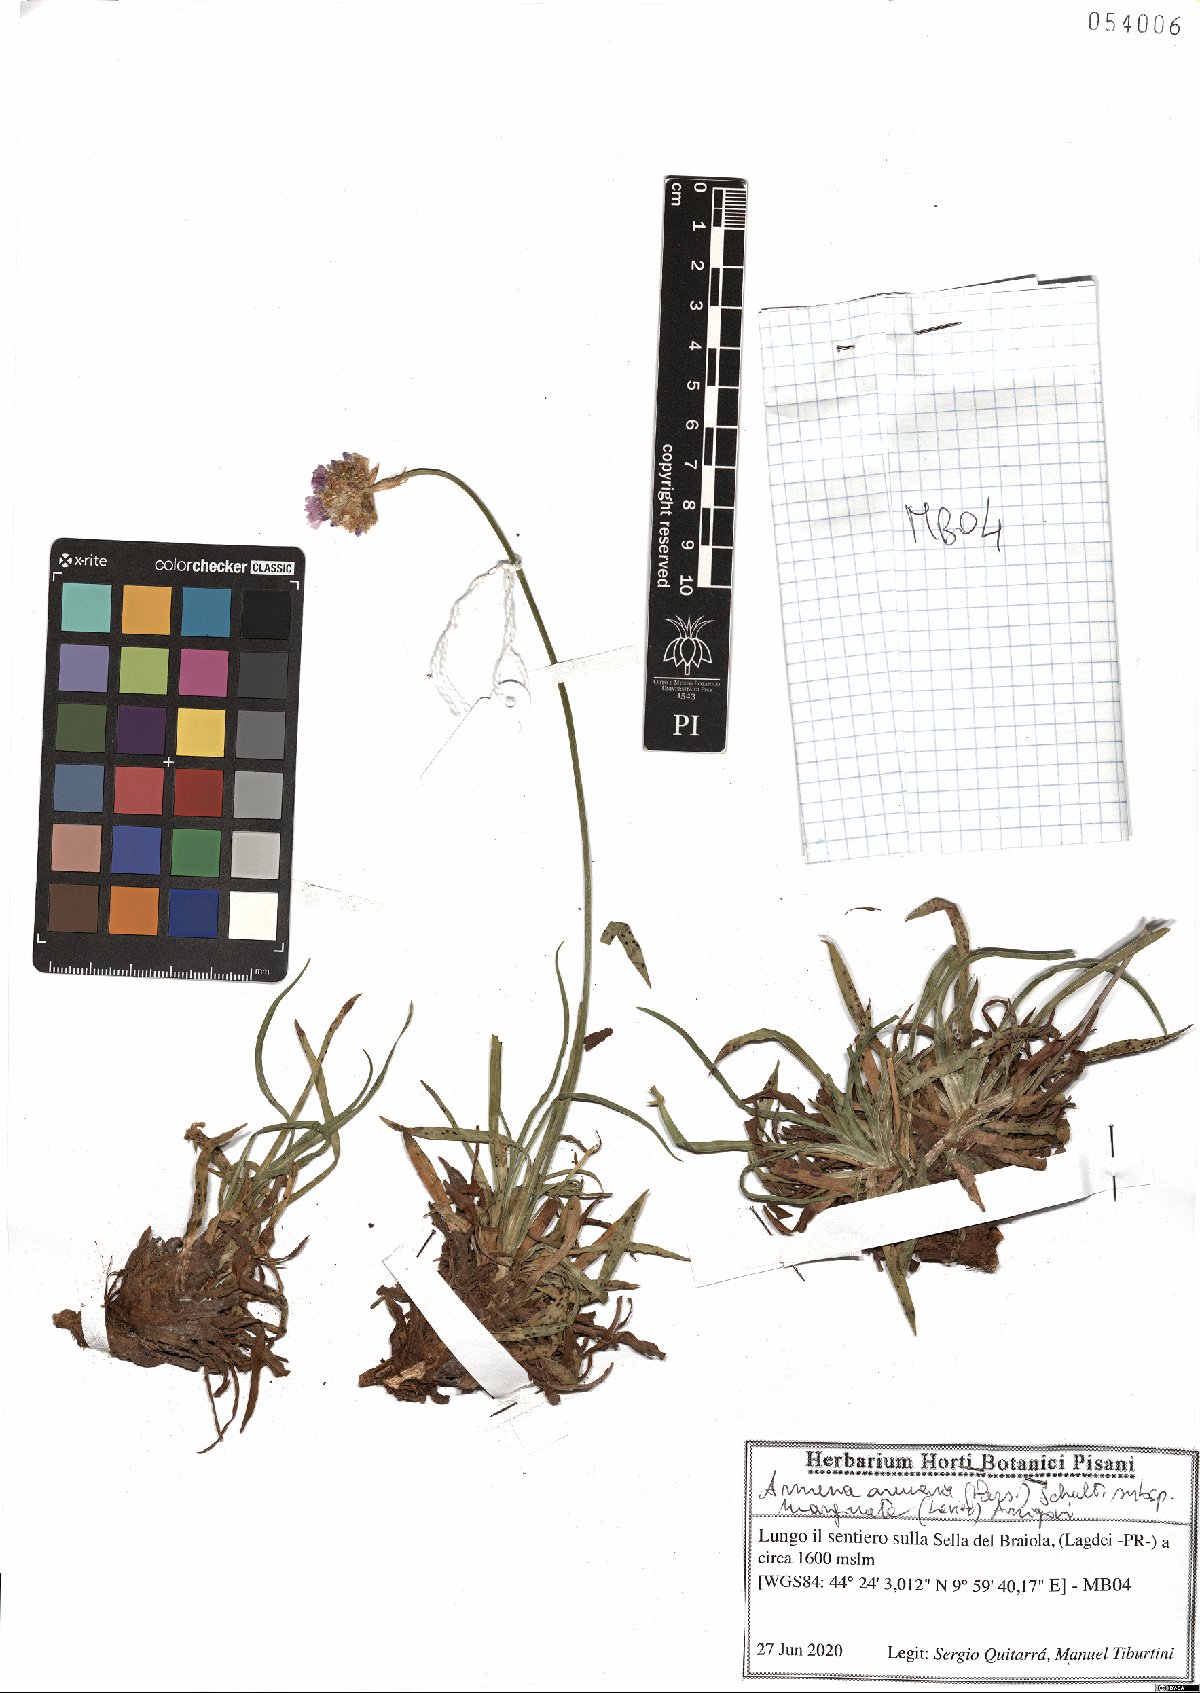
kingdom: Plantae
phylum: Tracheophyta
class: Magnoliopsida
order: Caryophyllales
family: Plumbaginaceae
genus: Armeria
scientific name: Armeria arenaria
